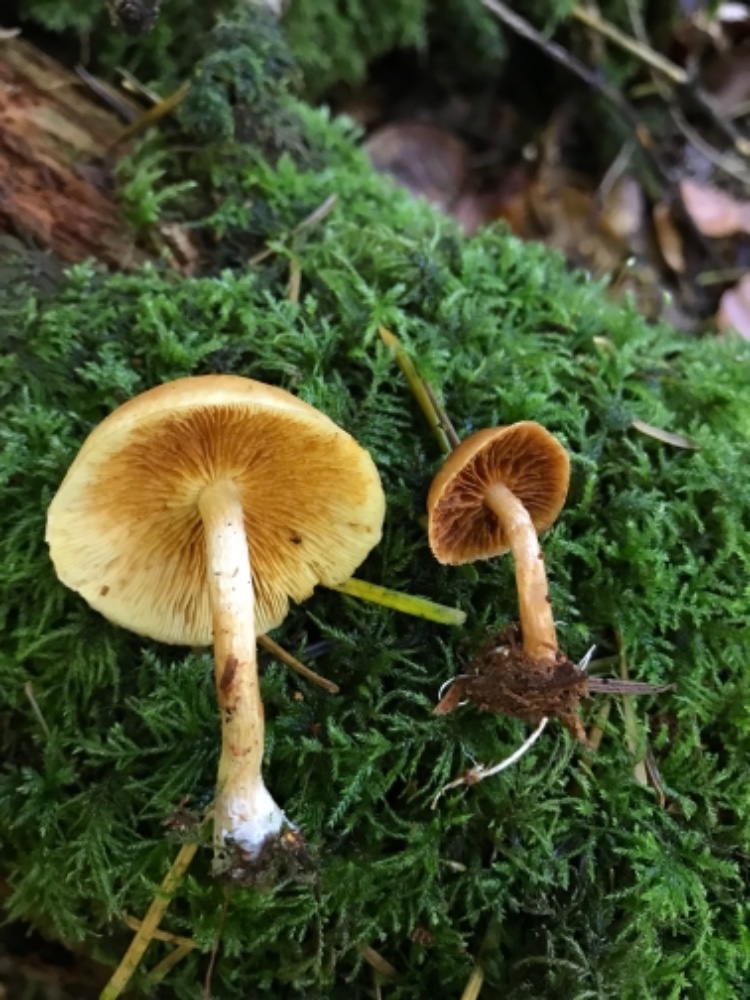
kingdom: Fungi
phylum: Basidiomycota
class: Agaricomycetes
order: Agaricales
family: Hymenogastraceae
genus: Gymnopilus
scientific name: Gymnopilus penetrans
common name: plettet flammehat
